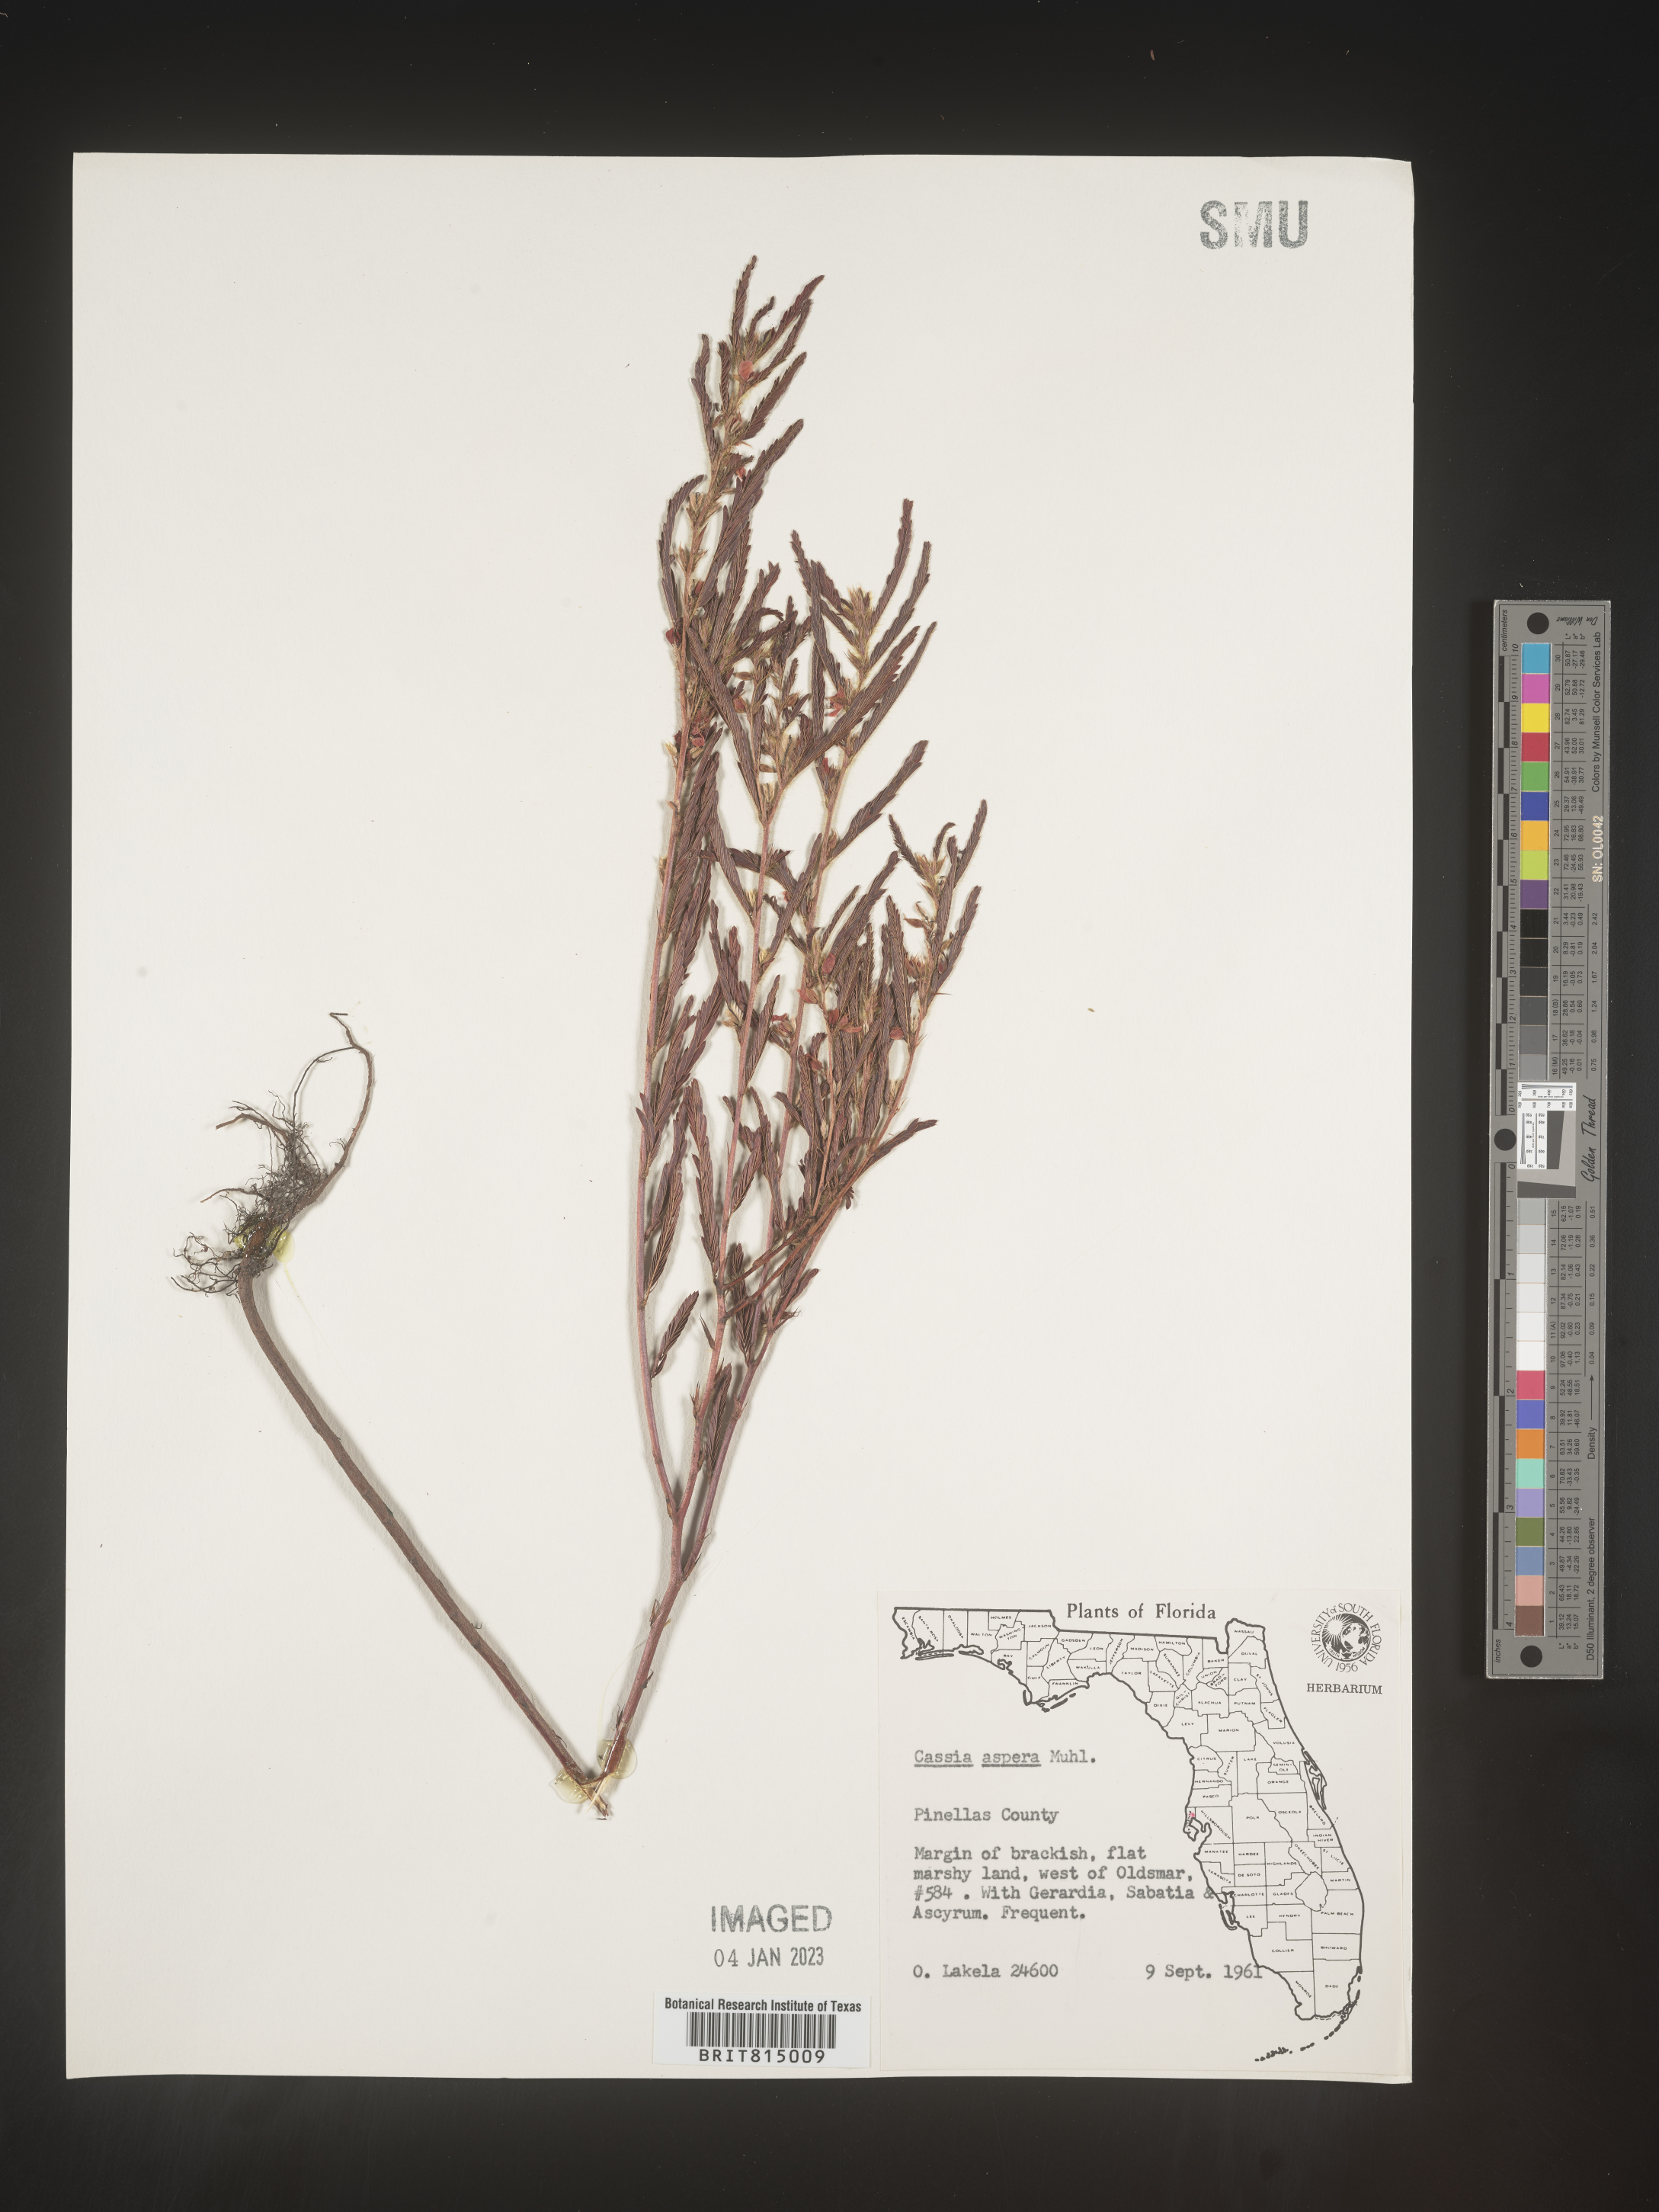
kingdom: Plantae
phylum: Tracheophyta
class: Magnoliopsida
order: Fabales
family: Fabaceae
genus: Cassia
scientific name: Cassia
